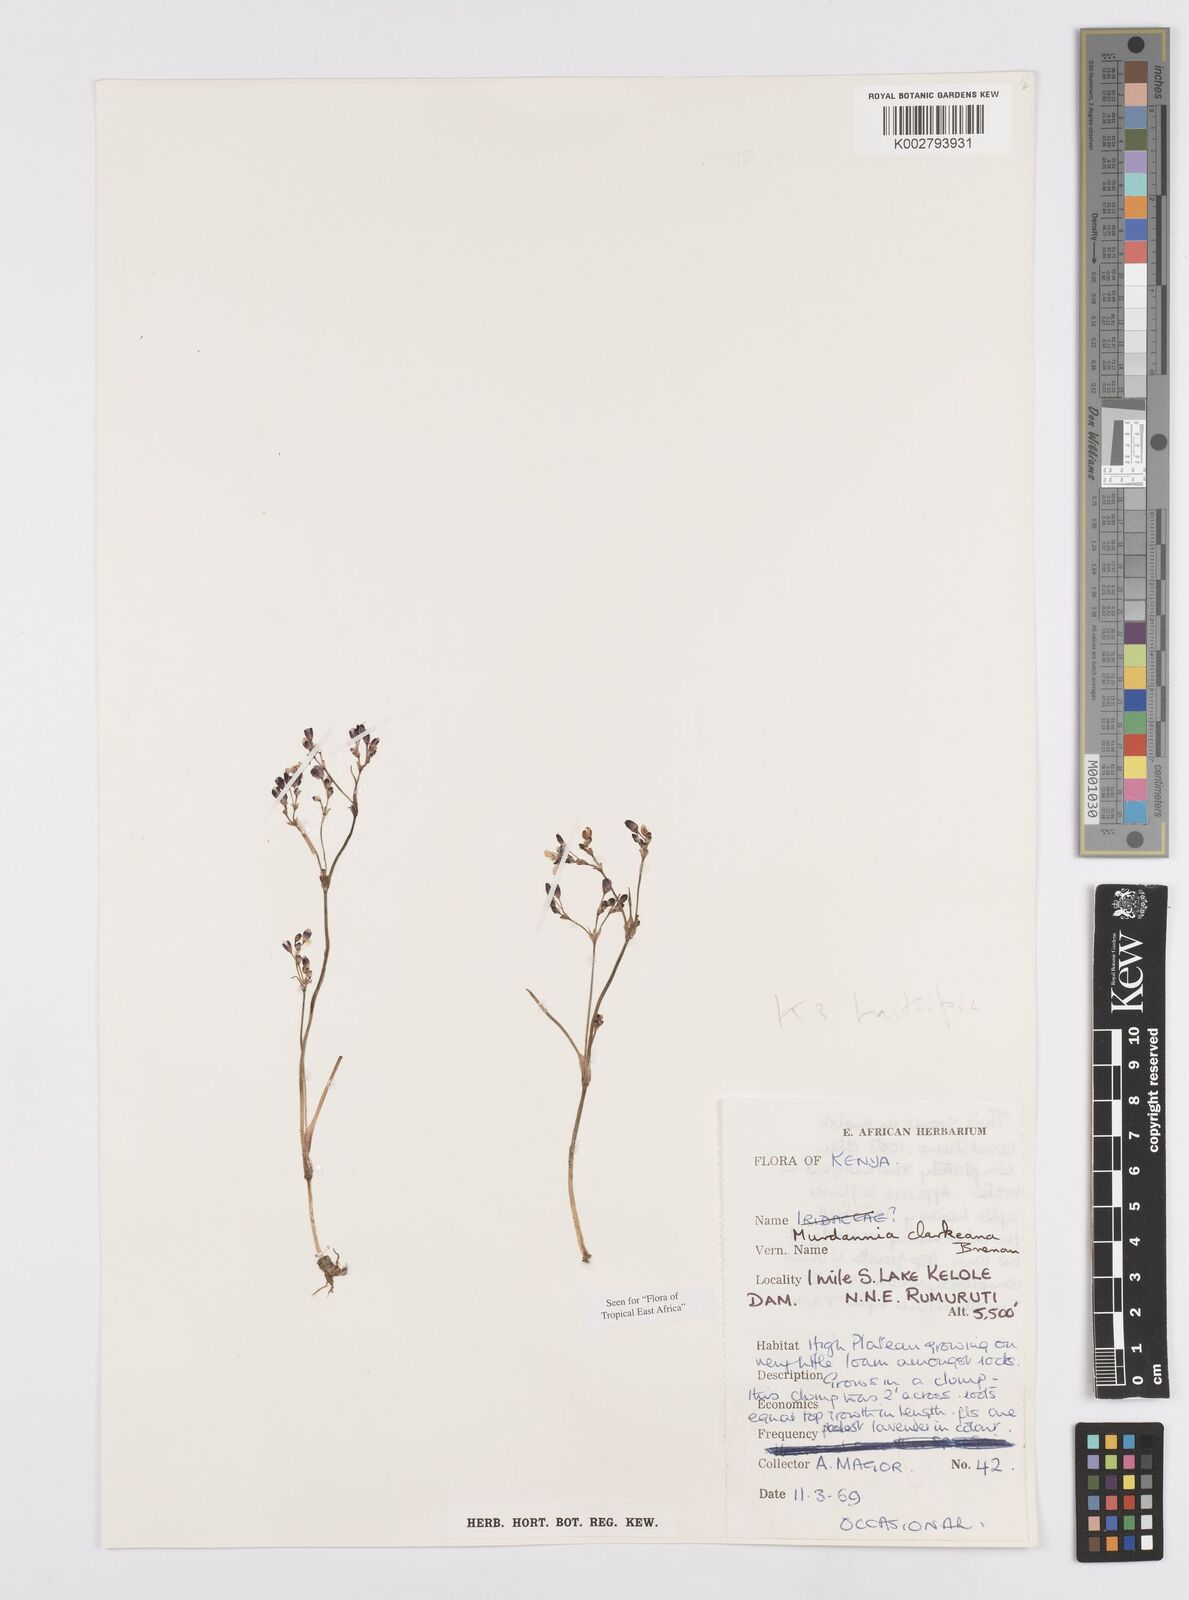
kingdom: Plantae
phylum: Tracheophyta
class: Liliopsida
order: Commelinales
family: Commelinaceae
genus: Murdannia
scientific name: Murdannia clarkeana
